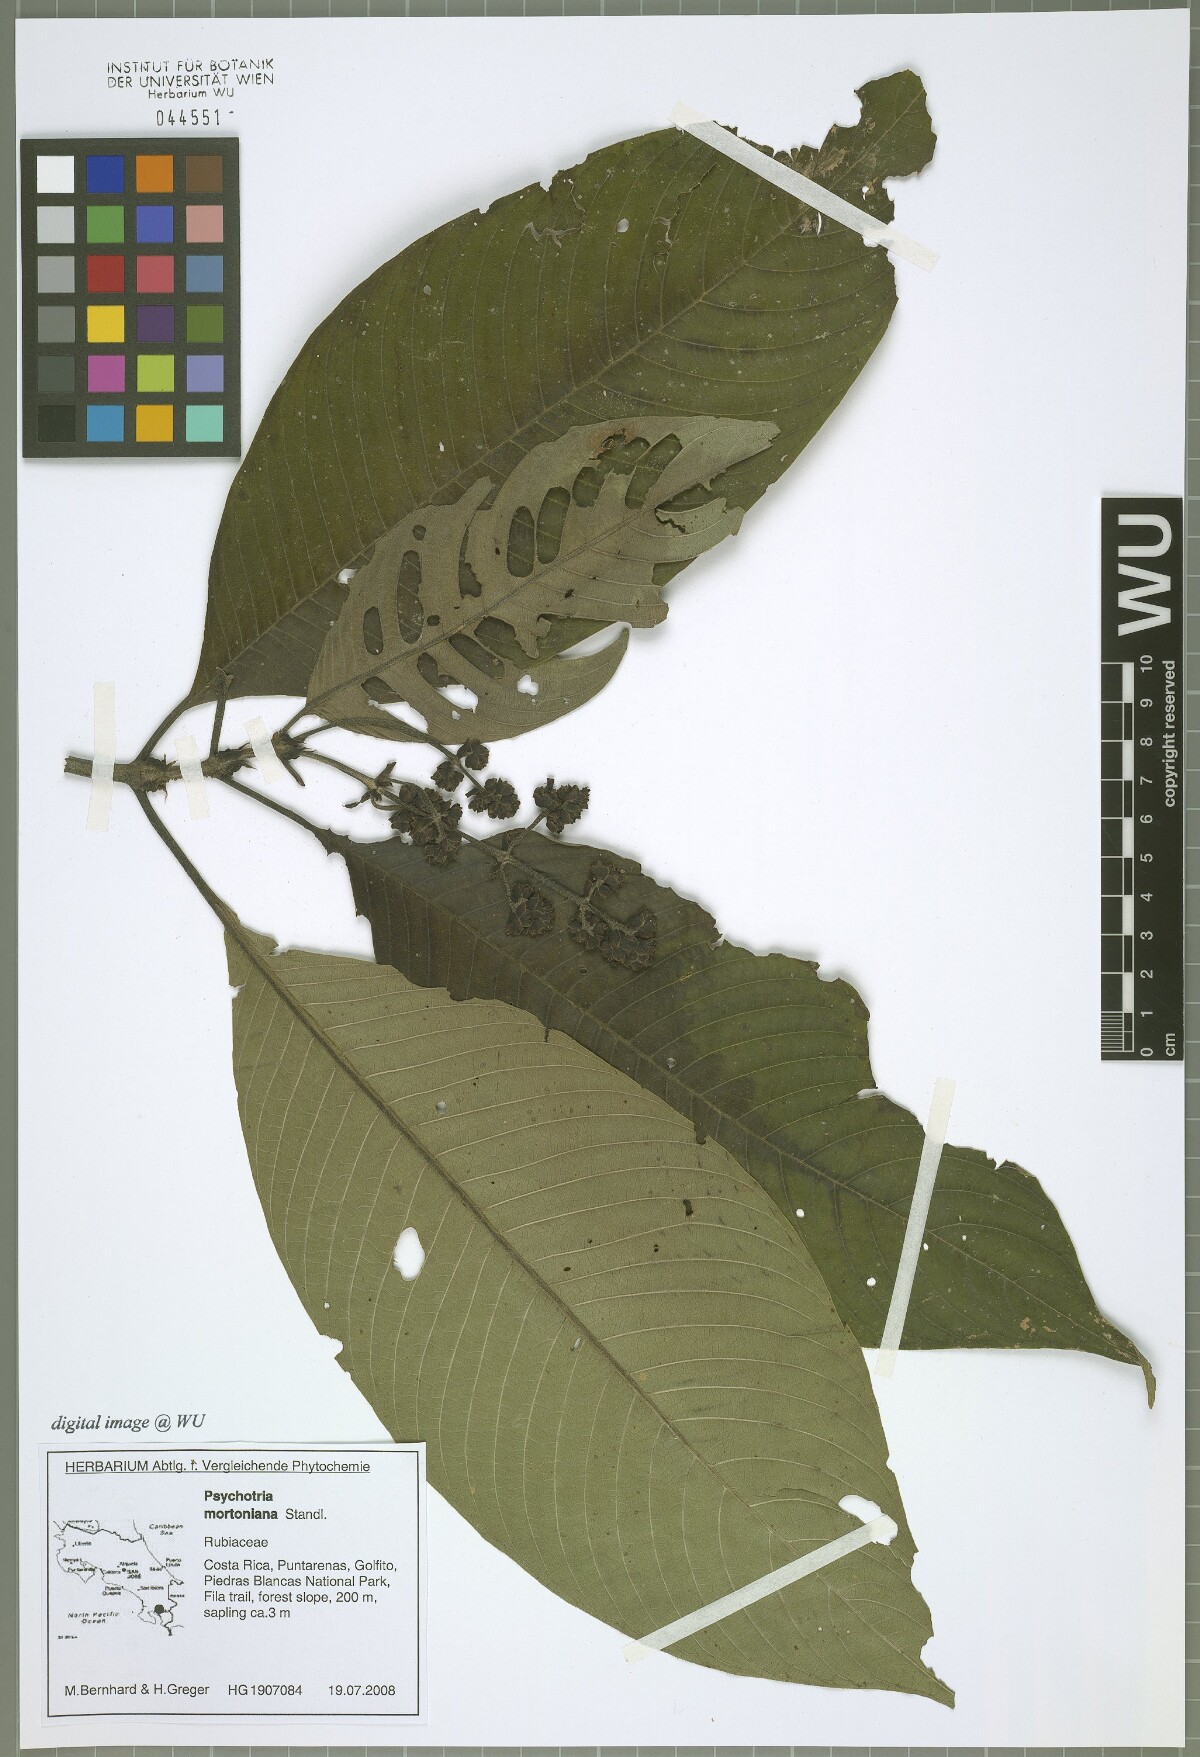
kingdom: Plantae
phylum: Tracheophyta
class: Magnoliopsida
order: Gentianales
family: Rubiaceae
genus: Palicourea
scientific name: Palicourea mortoniana
